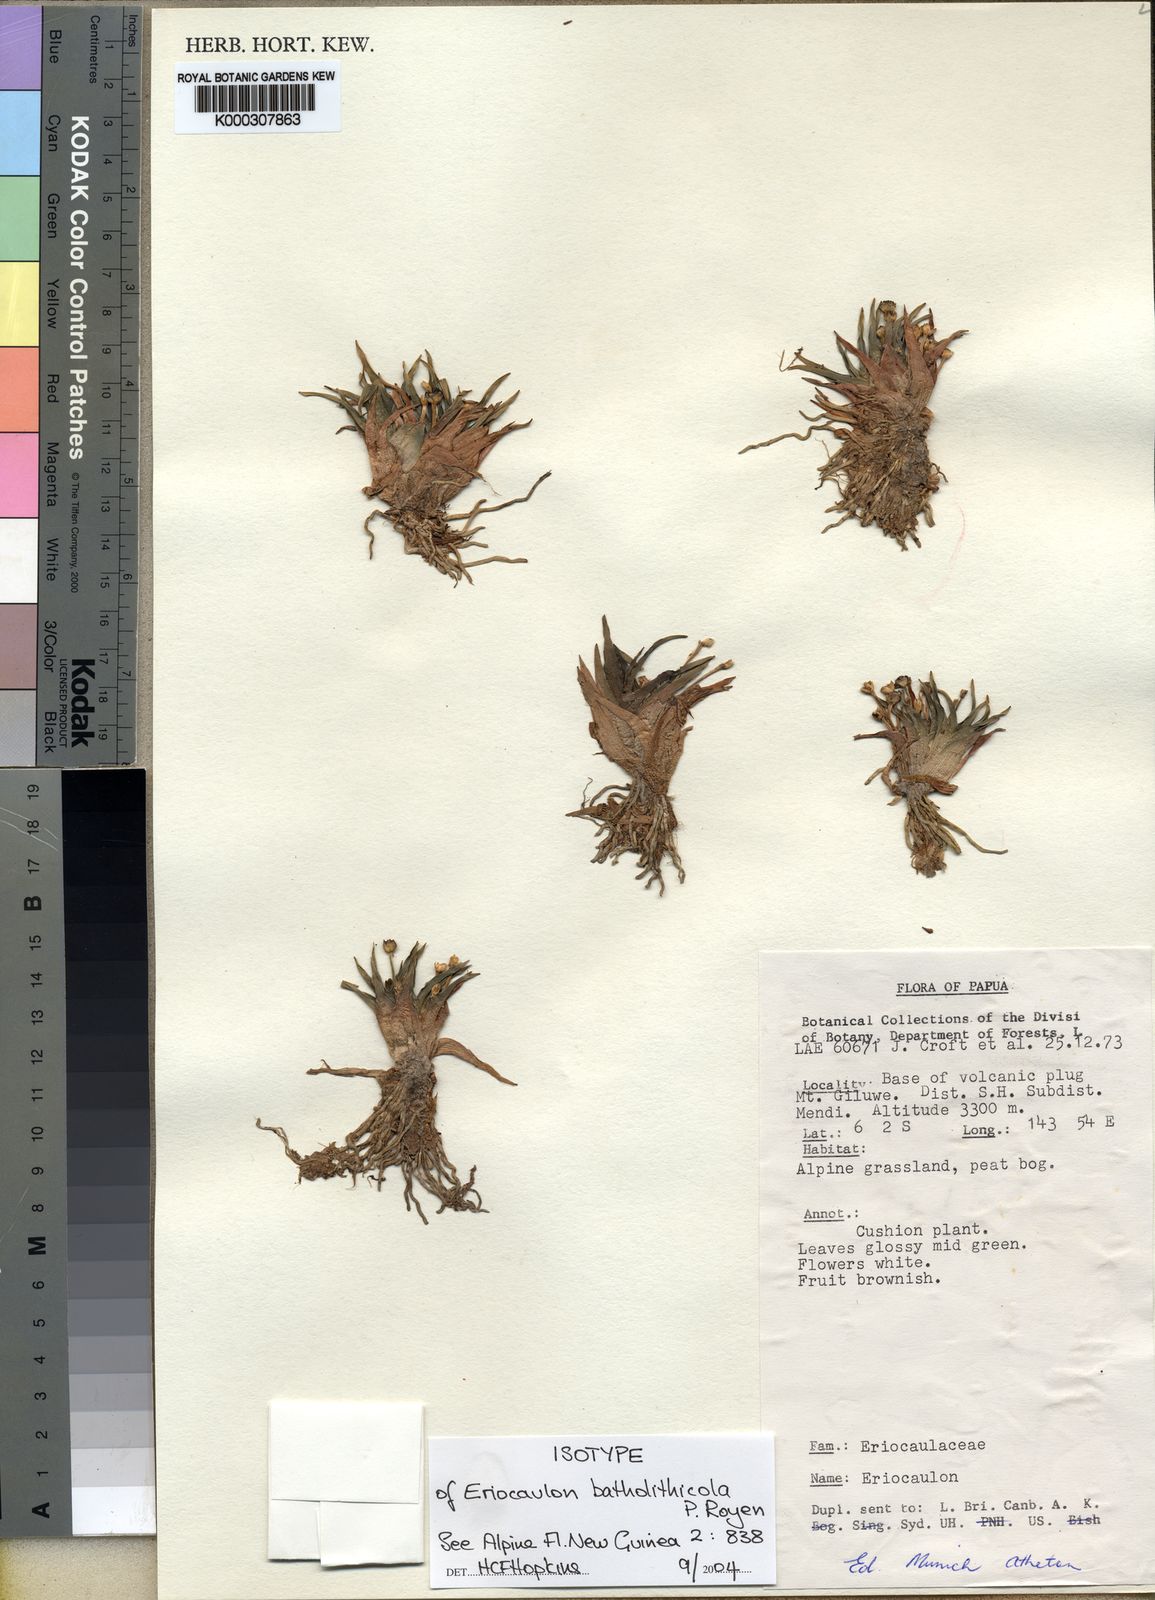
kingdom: Plantae
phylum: Tracheophyta
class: Liliopsida
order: Poales
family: Eriocaulaceae
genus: Eriocaulon
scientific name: Eriocaulon batholithicola
